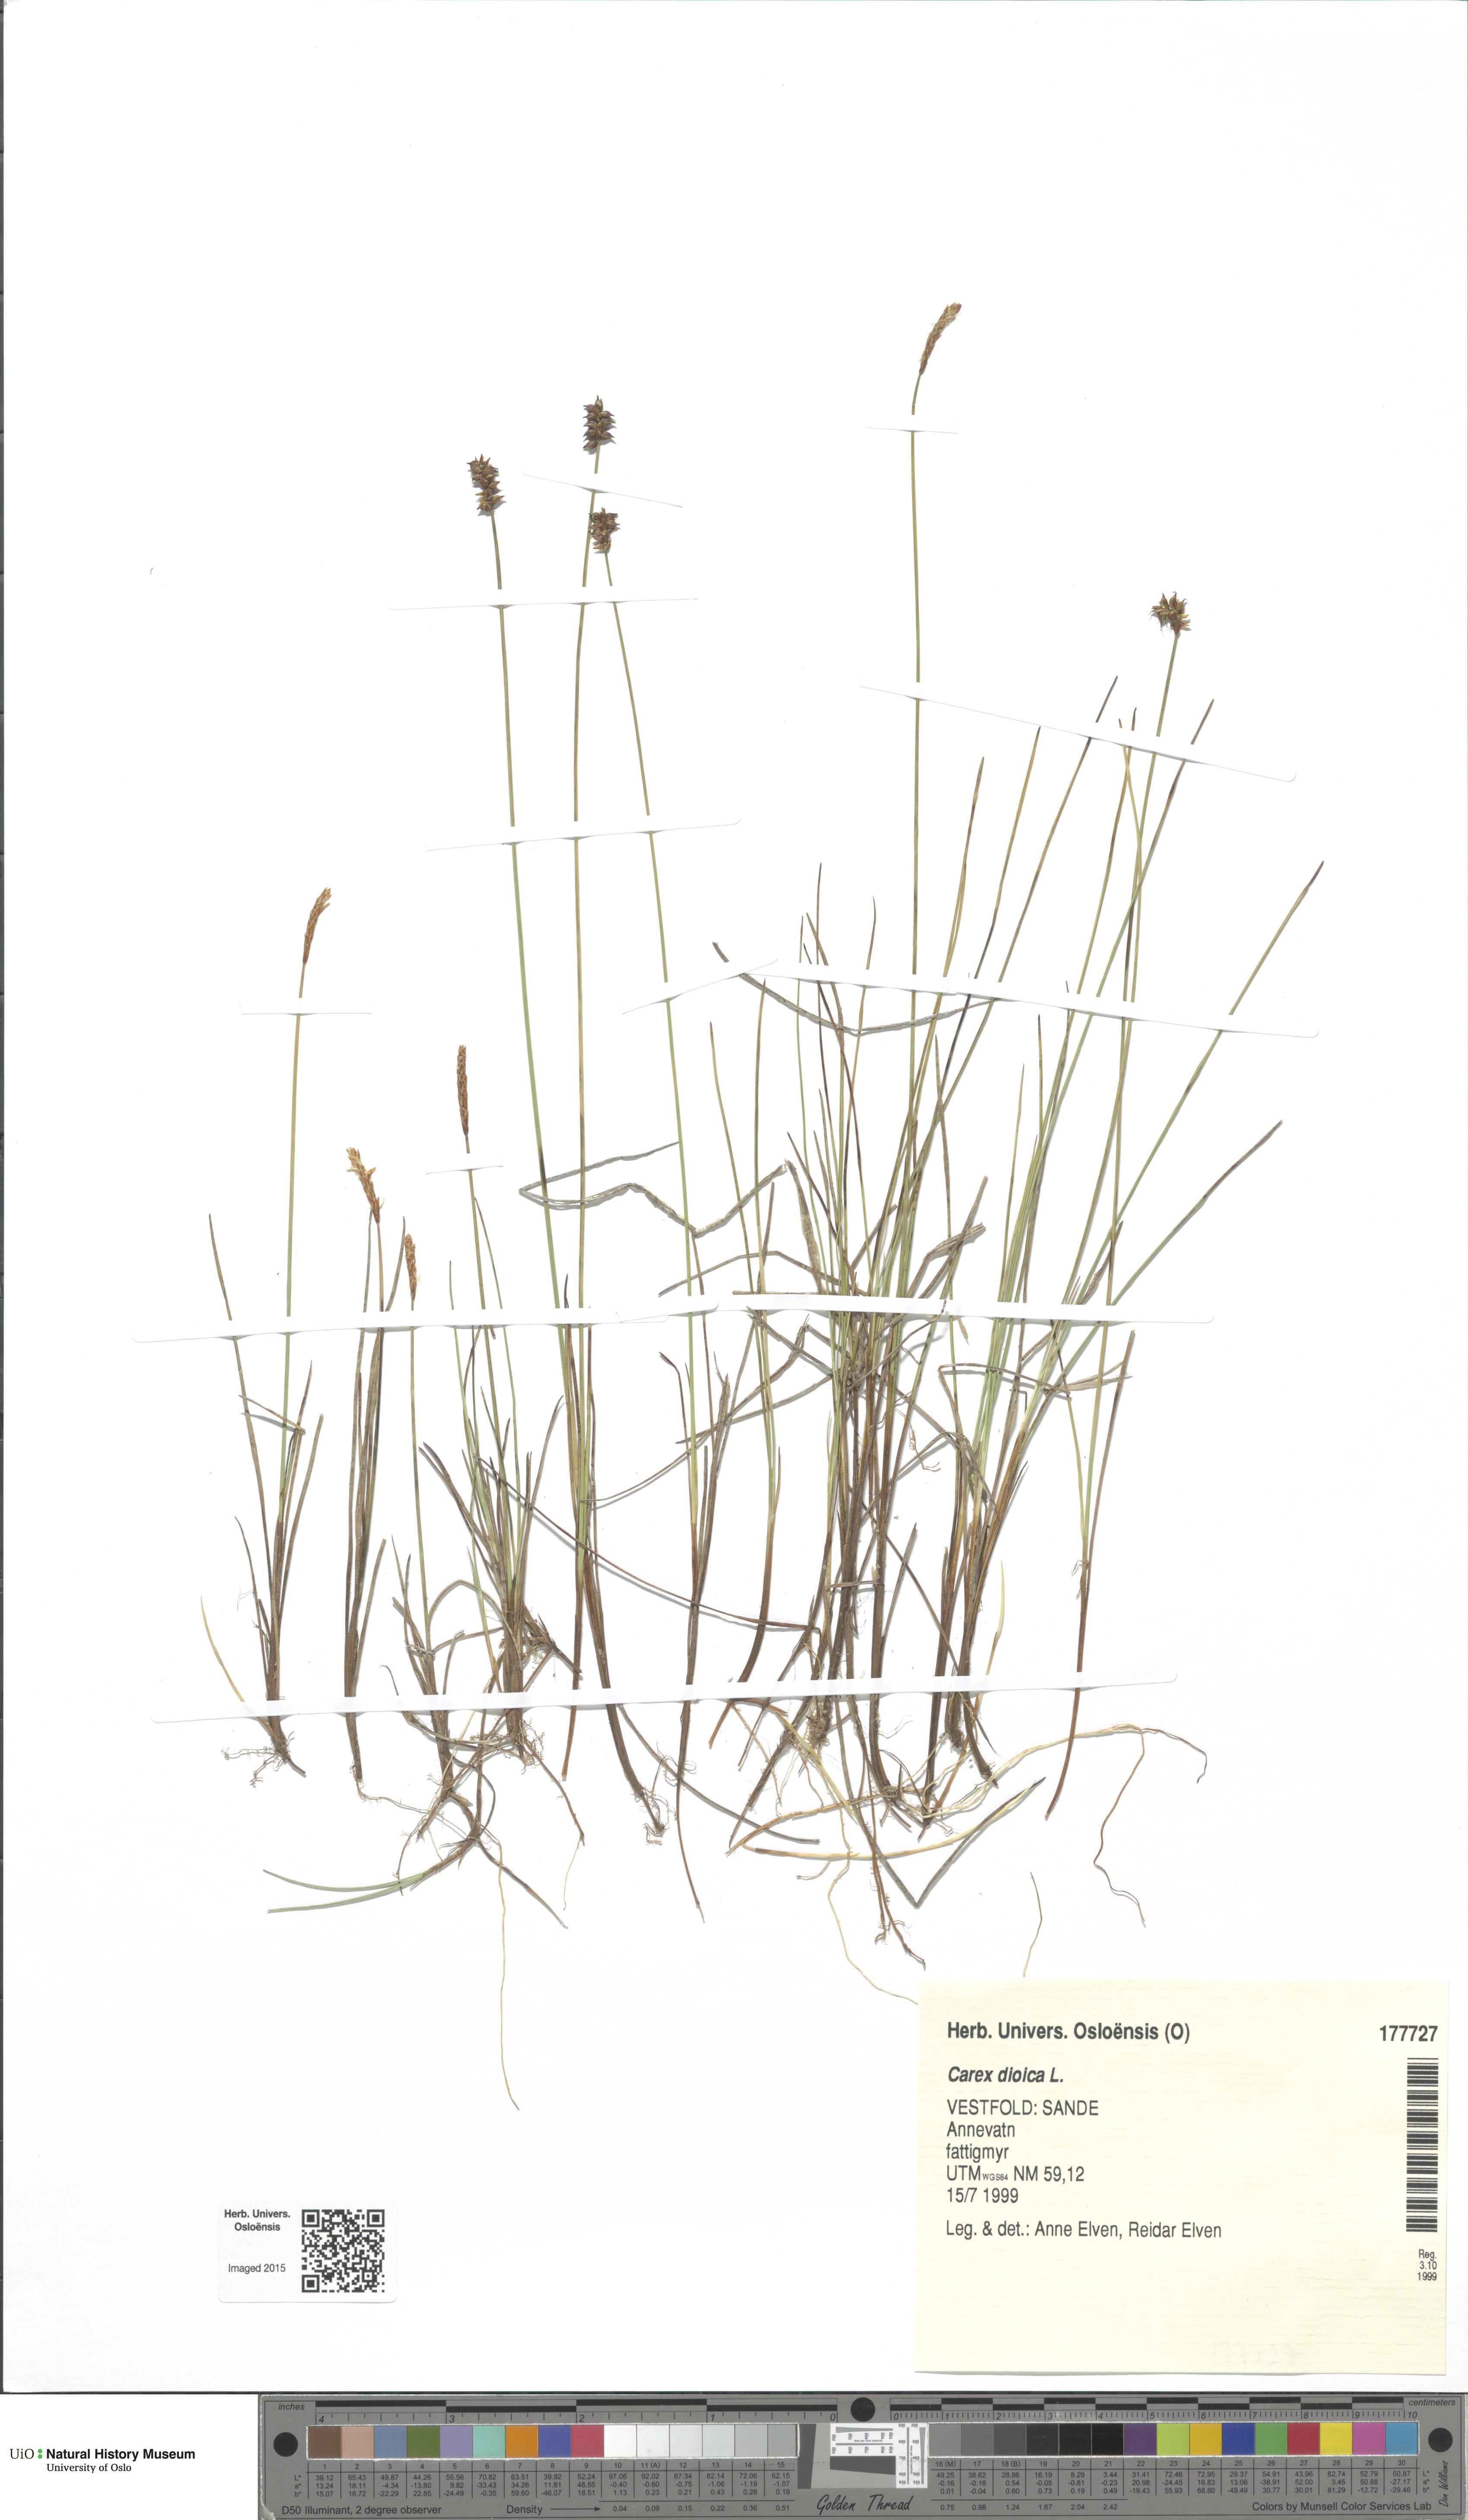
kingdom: Plantae
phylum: Tracheophyta
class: Liliopsida
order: Poales
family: Cyperaceae
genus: Carex
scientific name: Carex dioica
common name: Dioecious sedge
